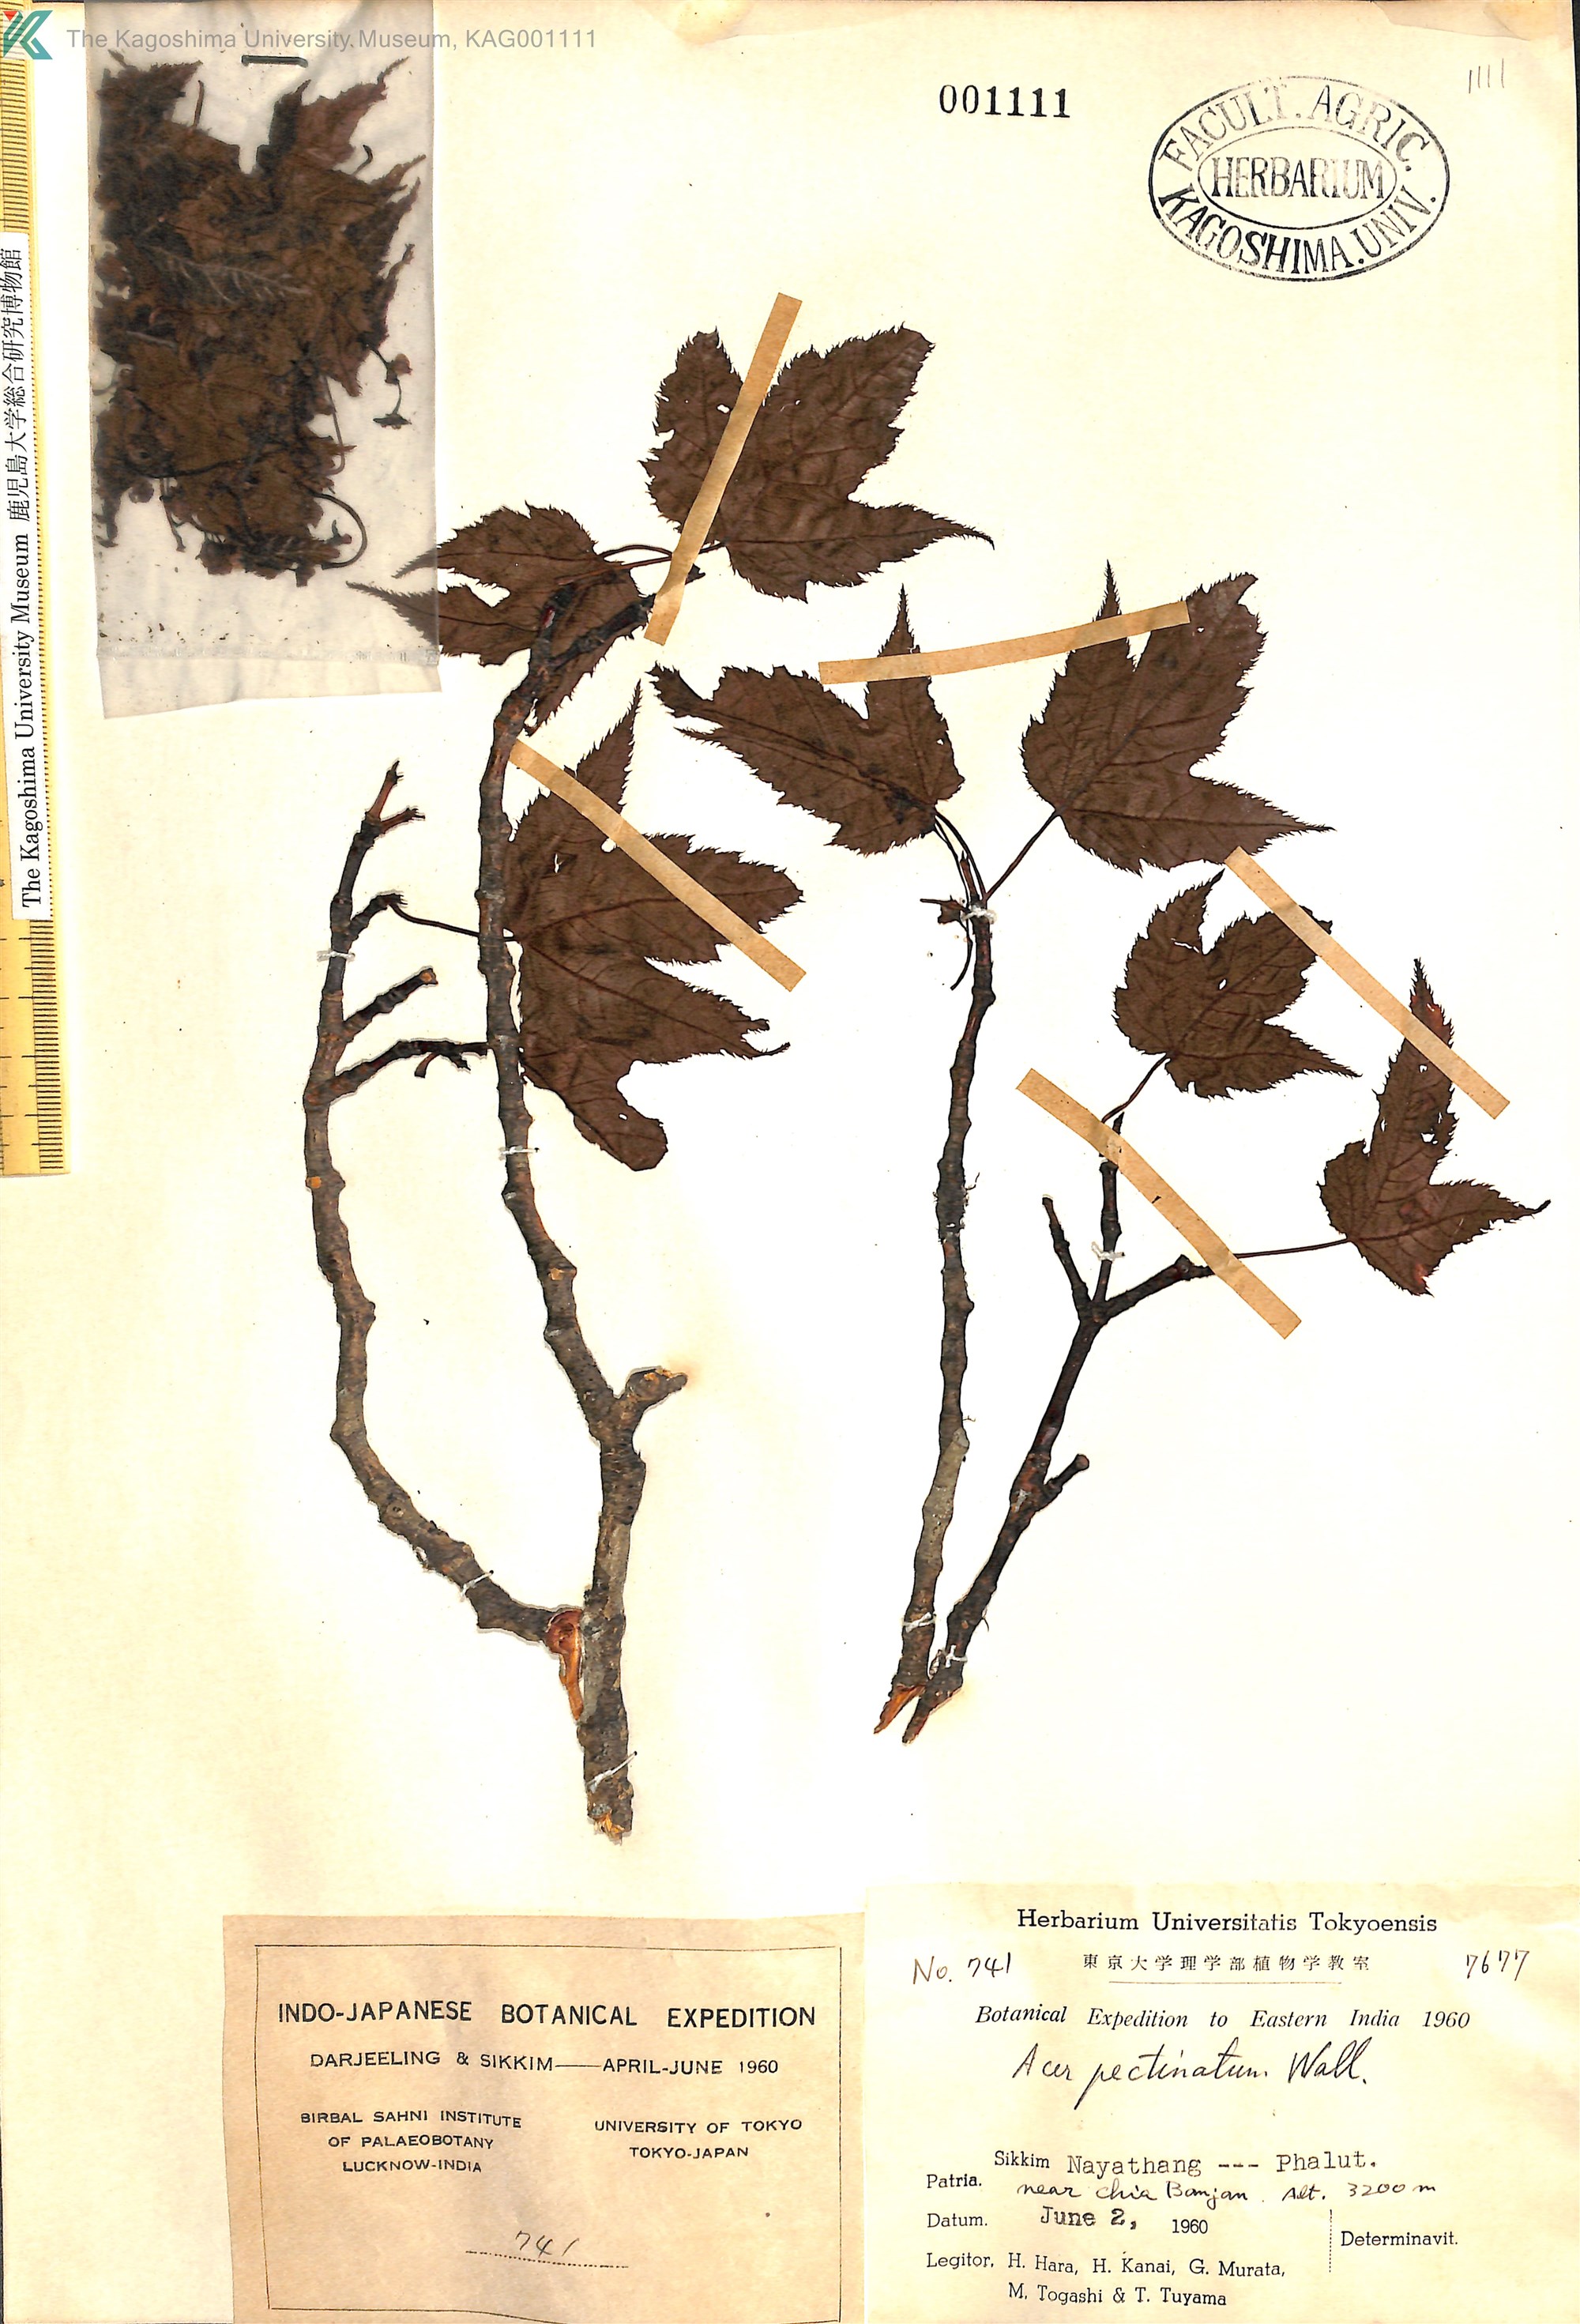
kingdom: Plantae
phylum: Tracheophyta
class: Magnoliopsida
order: Sapindales
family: Sapindaceae
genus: Acer
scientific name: Acer pectinatum
